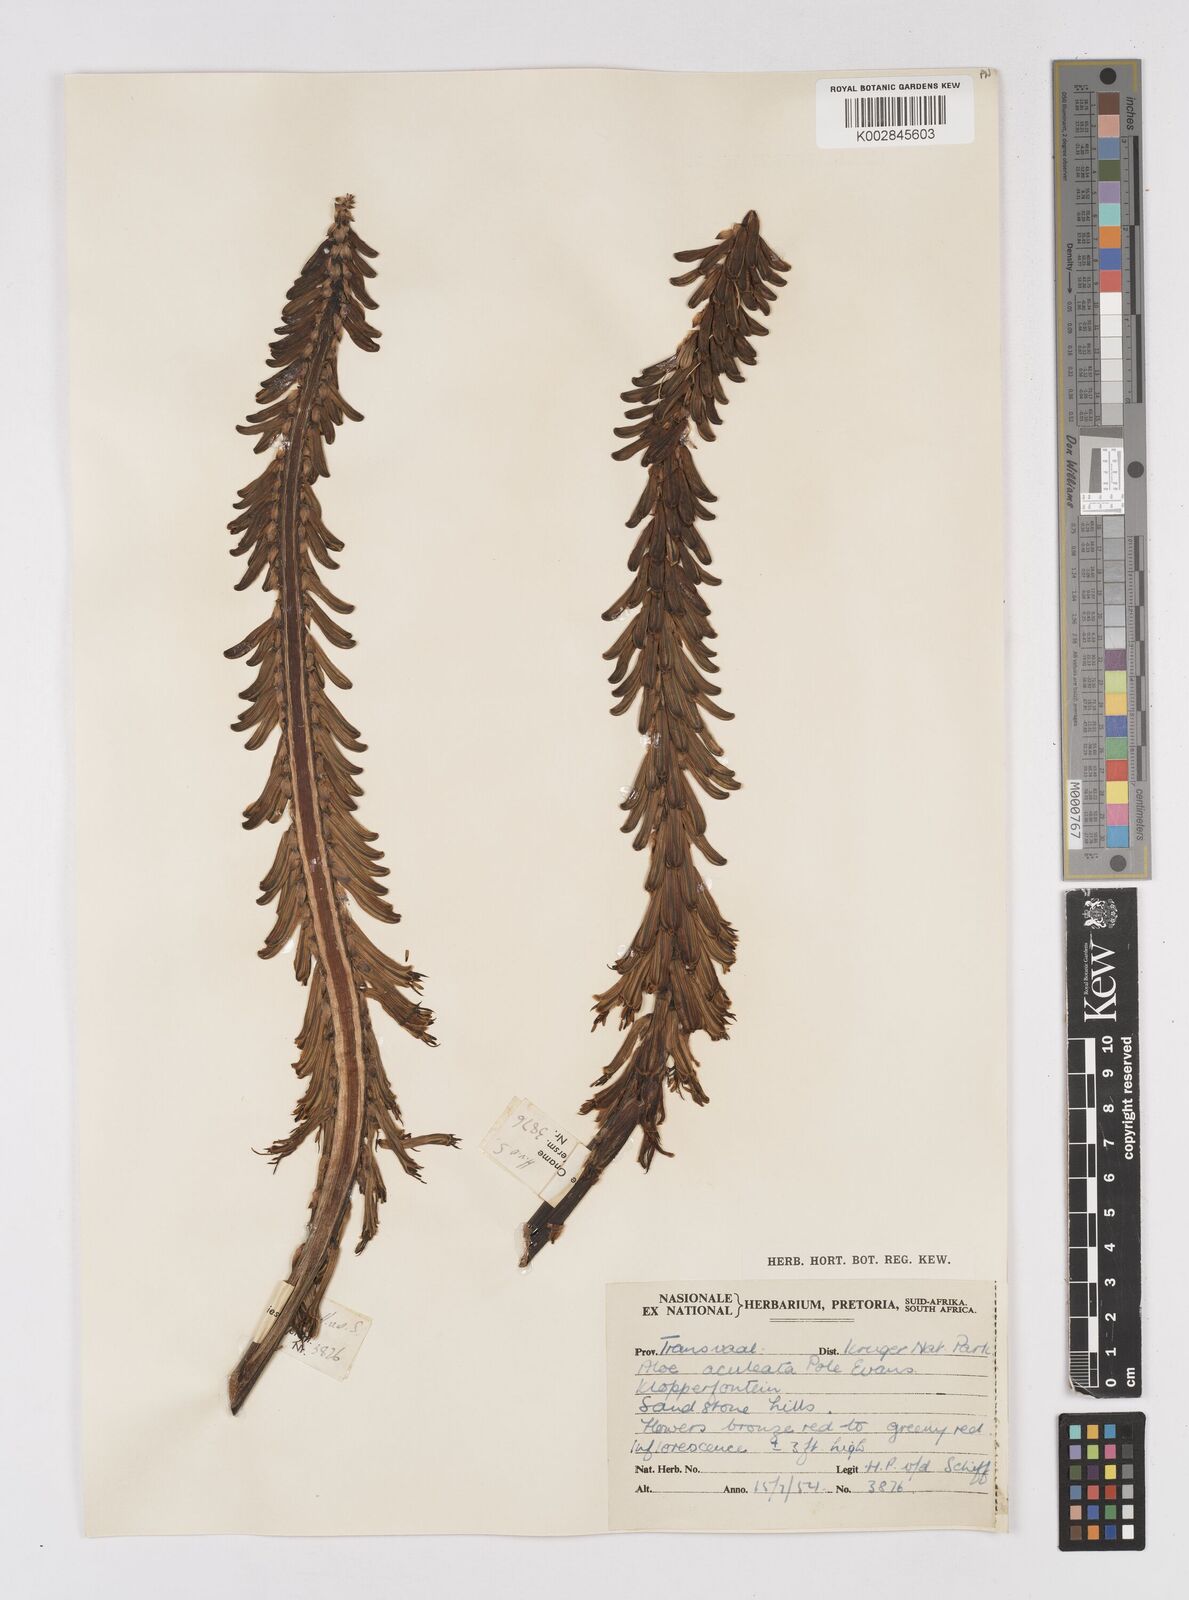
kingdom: Plantae
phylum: Tracheophyta
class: Liliopsida
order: Asparagales
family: Asphodelaceae
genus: Aloe
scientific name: Aloe aculeata
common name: Red hot poker aloe
